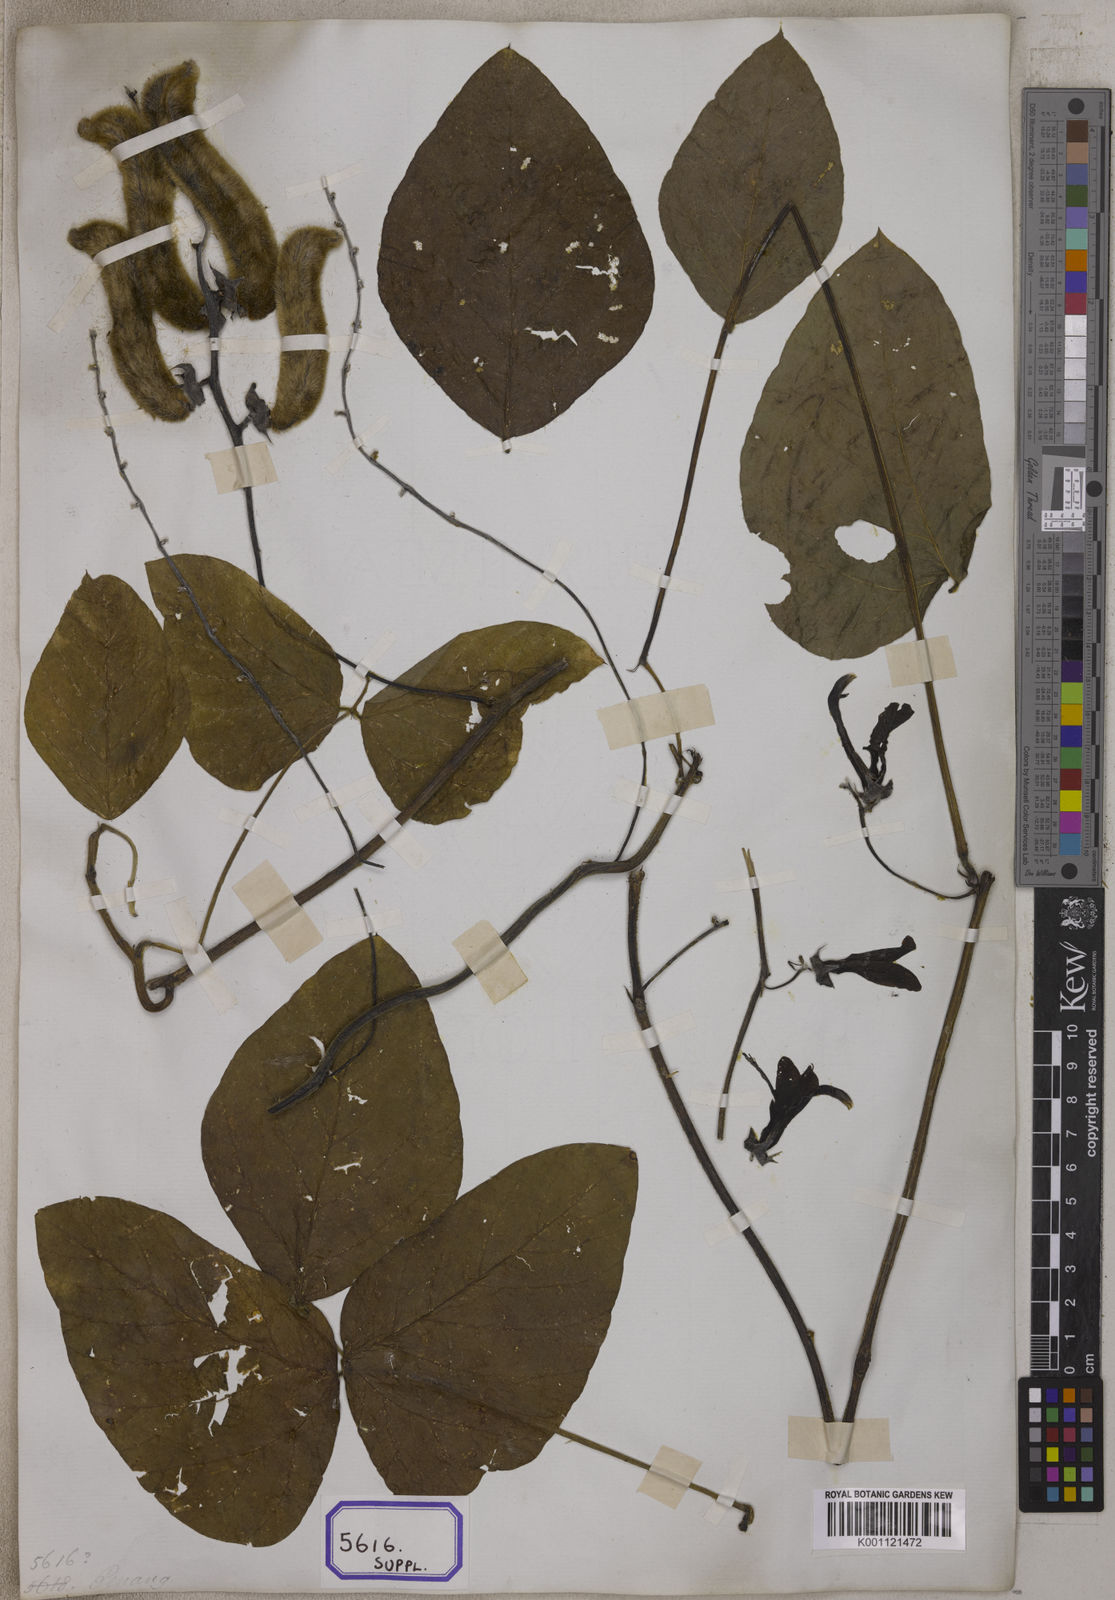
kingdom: Plantae
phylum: Tracheophyta
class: Magnoliopsida
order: Fabales
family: Fabaceae
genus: Mucuna
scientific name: Mucuna pruriens
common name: Cow-itch
